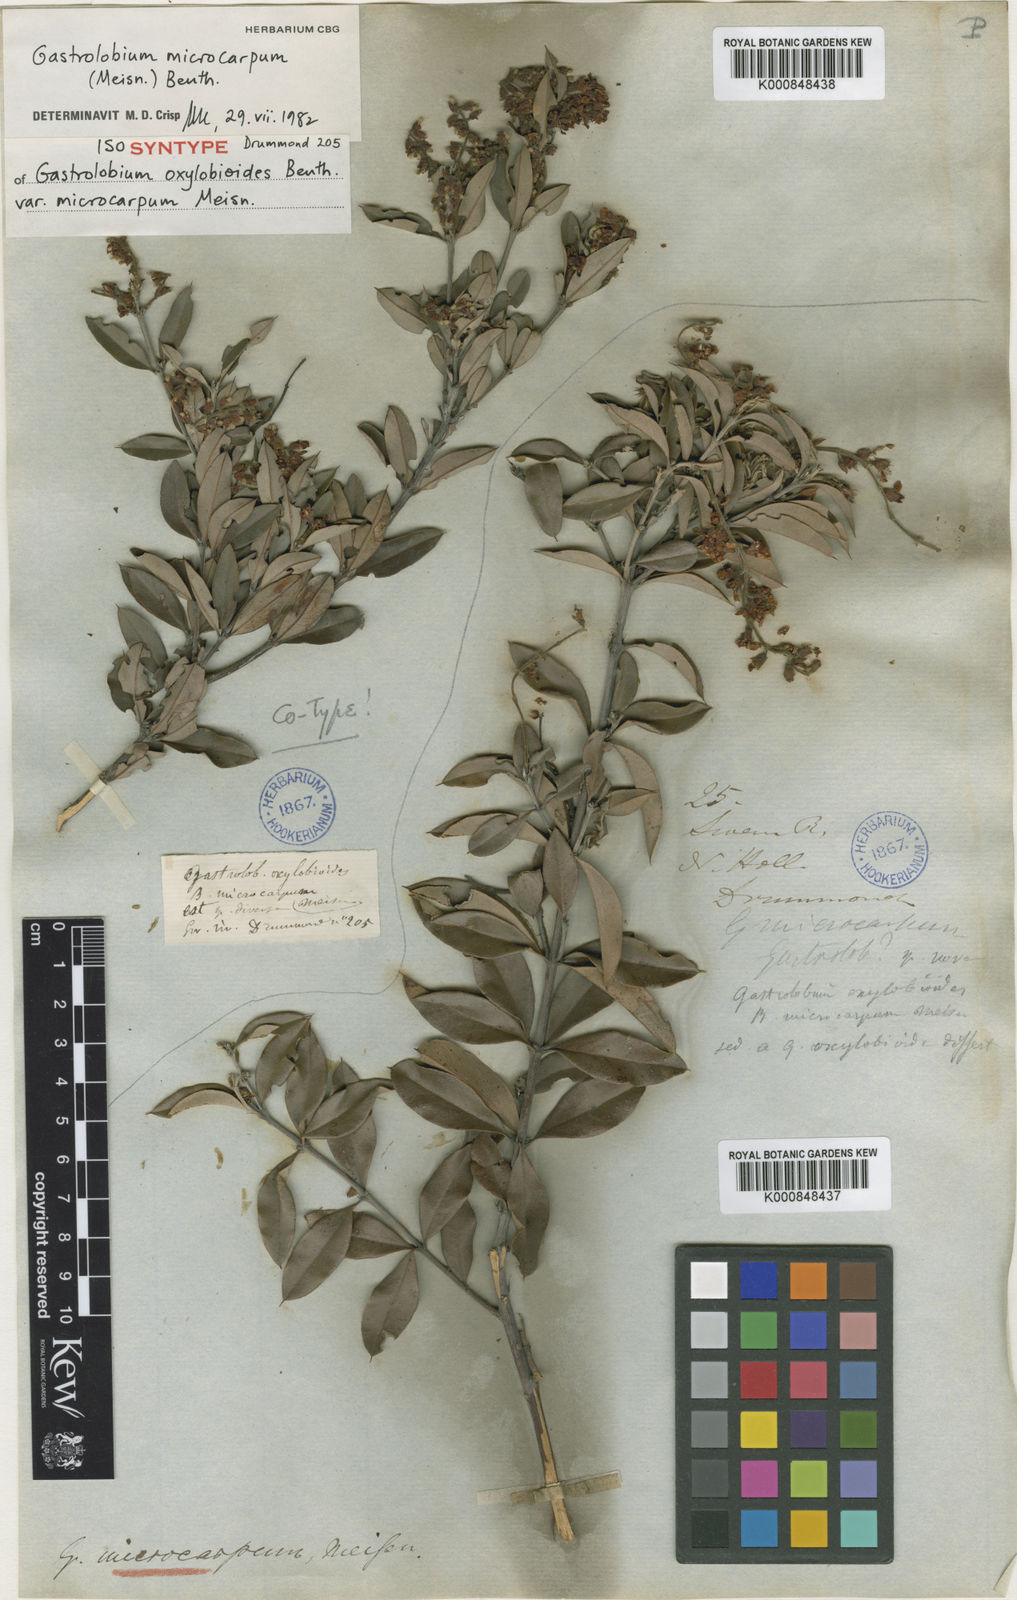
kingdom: Plantae
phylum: Tracheophyta
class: Magnoliopsida
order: Fabales
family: Fabaceae
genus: Gastrolobium
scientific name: Gastrolobium
